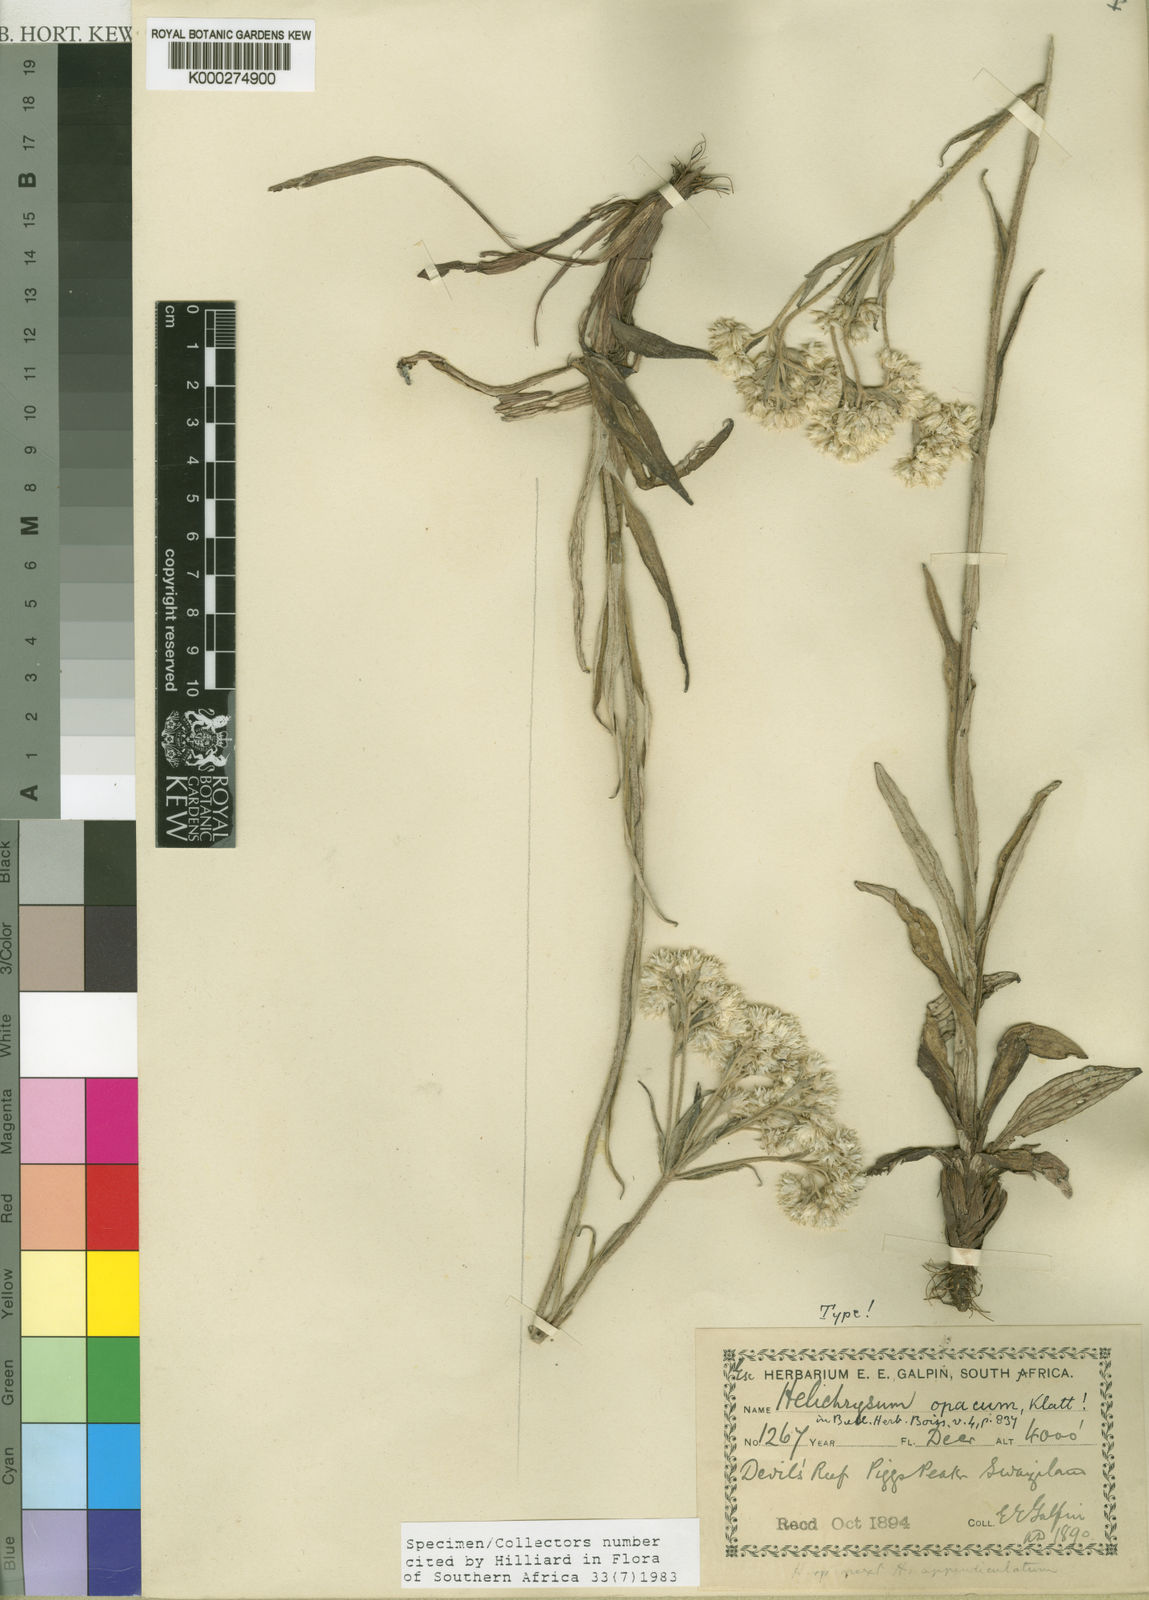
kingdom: Plantae
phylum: Tracheophyta
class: Magnoliopsida
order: Asterales
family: Asteraceae
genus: Helichrysum
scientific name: Helichrysum opacum
